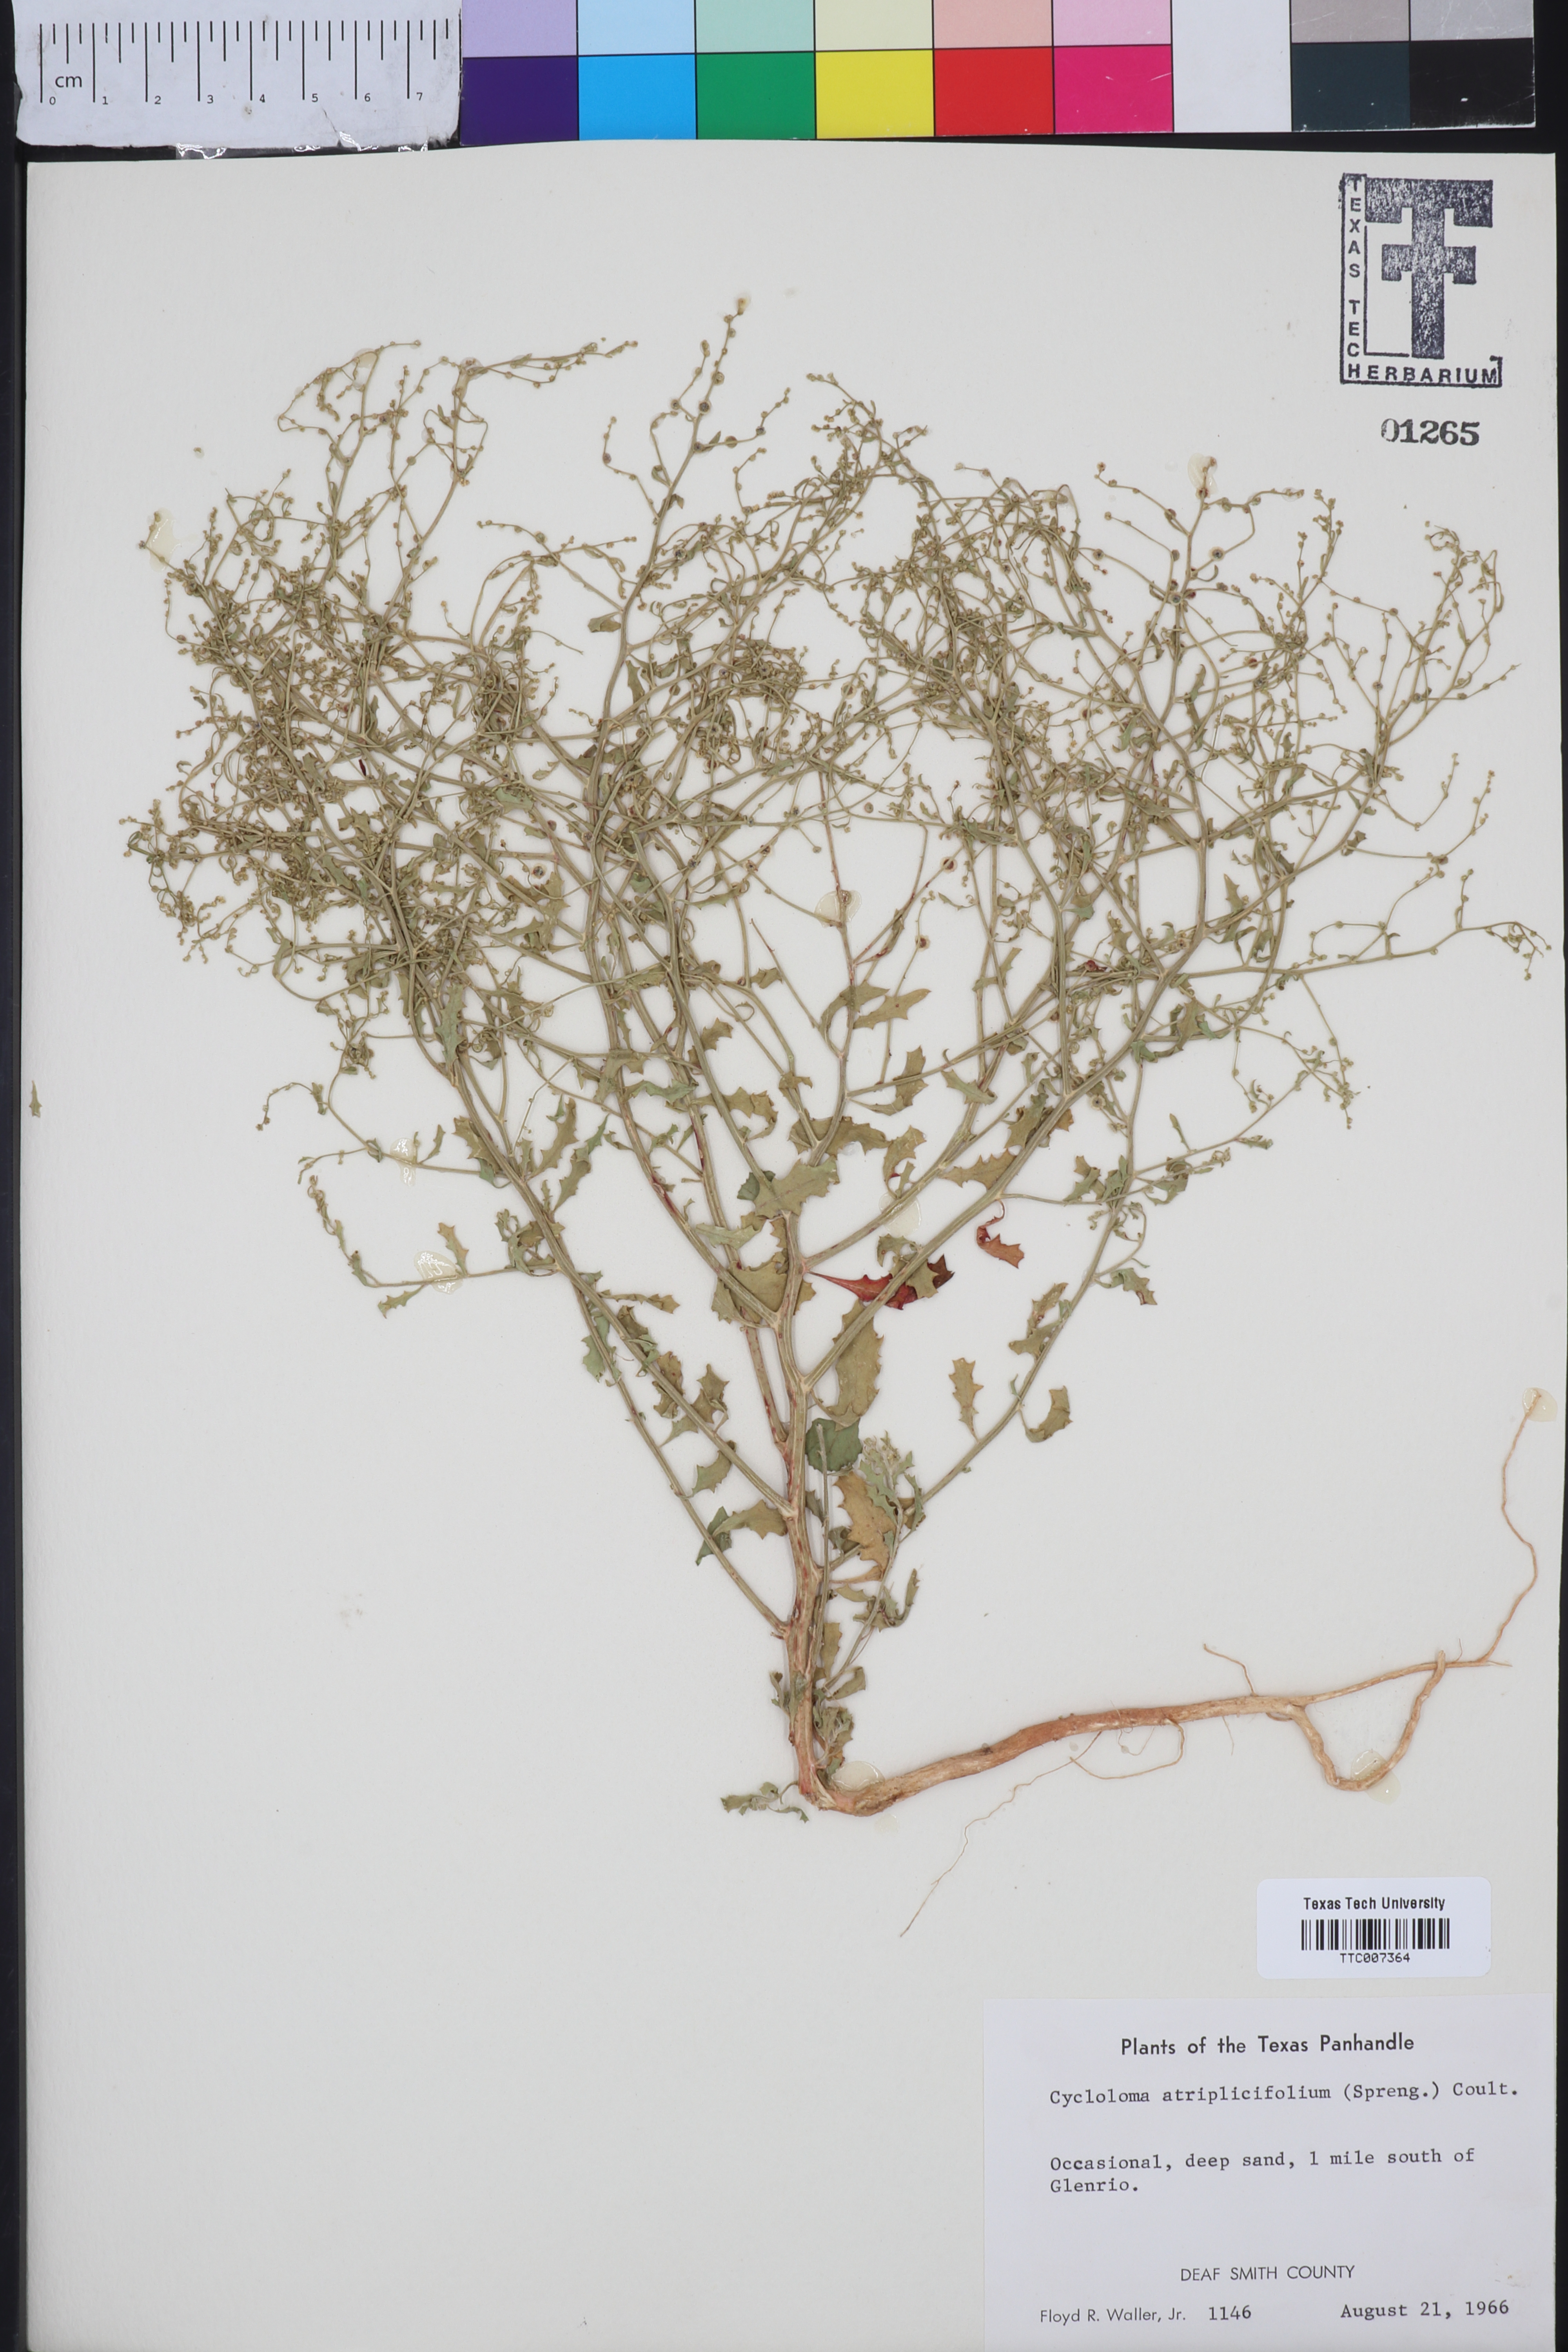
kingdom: Plantae
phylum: Tracheophyta
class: Magnoliopsida
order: Caryophyllales
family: Amaranthaceae
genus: Dysphania
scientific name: Dysphania atriplicifolia
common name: Plains tumbleweed
